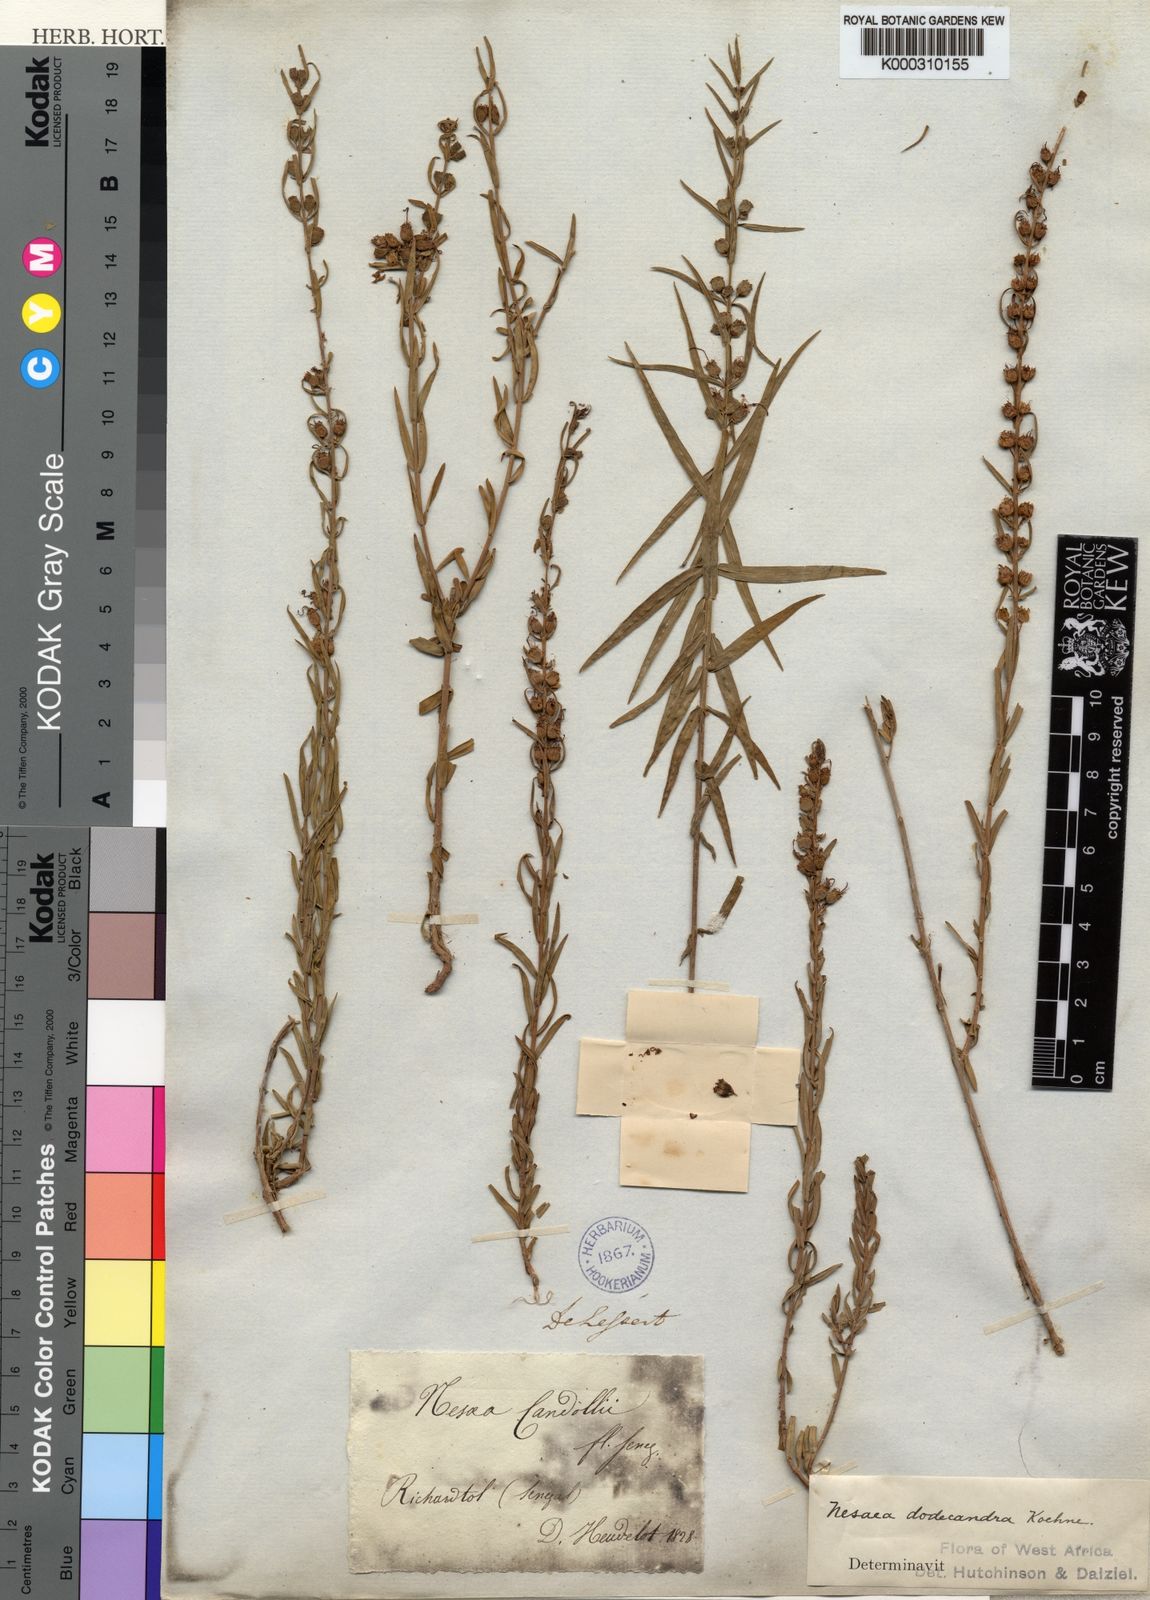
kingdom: Plantae
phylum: Tracheophyta
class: Magnoliopsida
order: Myrtales
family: Lythraceae
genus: Nesaea
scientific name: Nesaea
